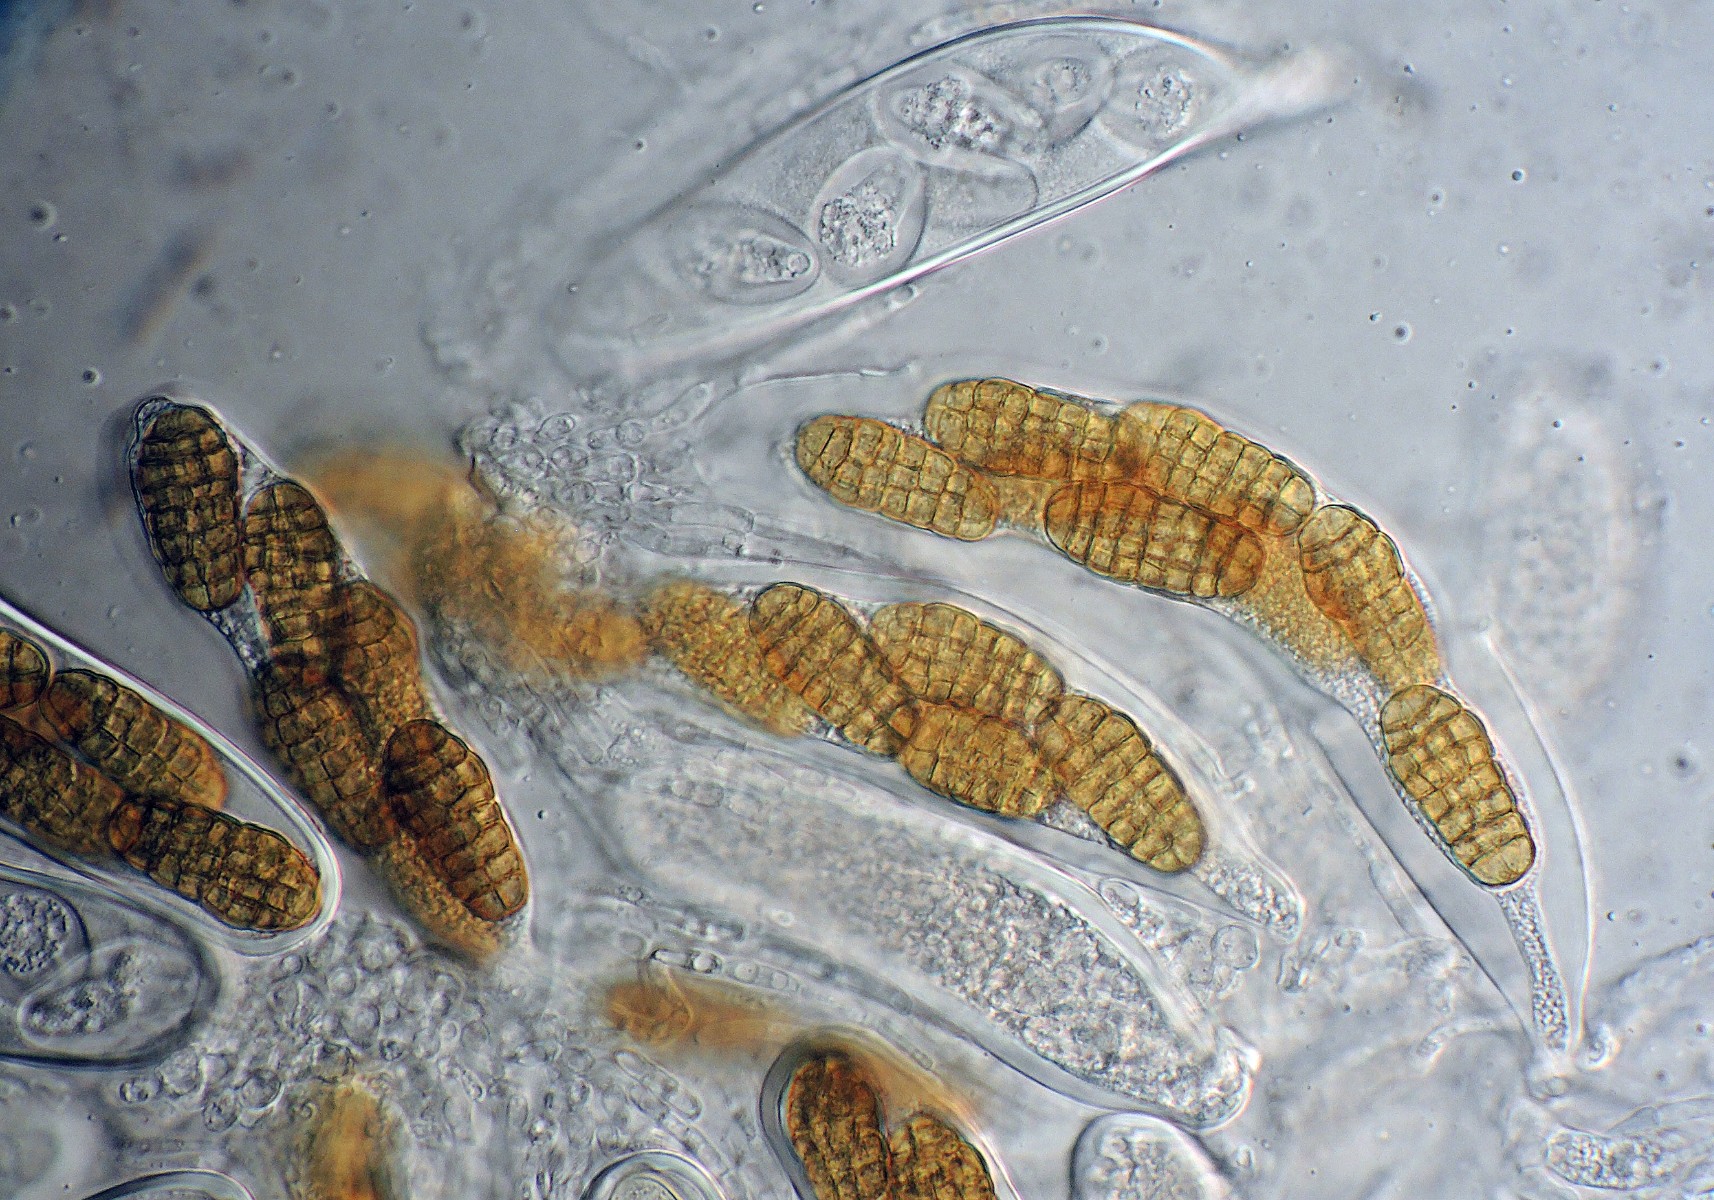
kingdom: Fungi
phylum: Ascomycota
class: Dothideomycetes
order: Pleosporales
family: Pleosporaceae
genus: Stemphylium
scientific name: Stemphylium vesicarium
